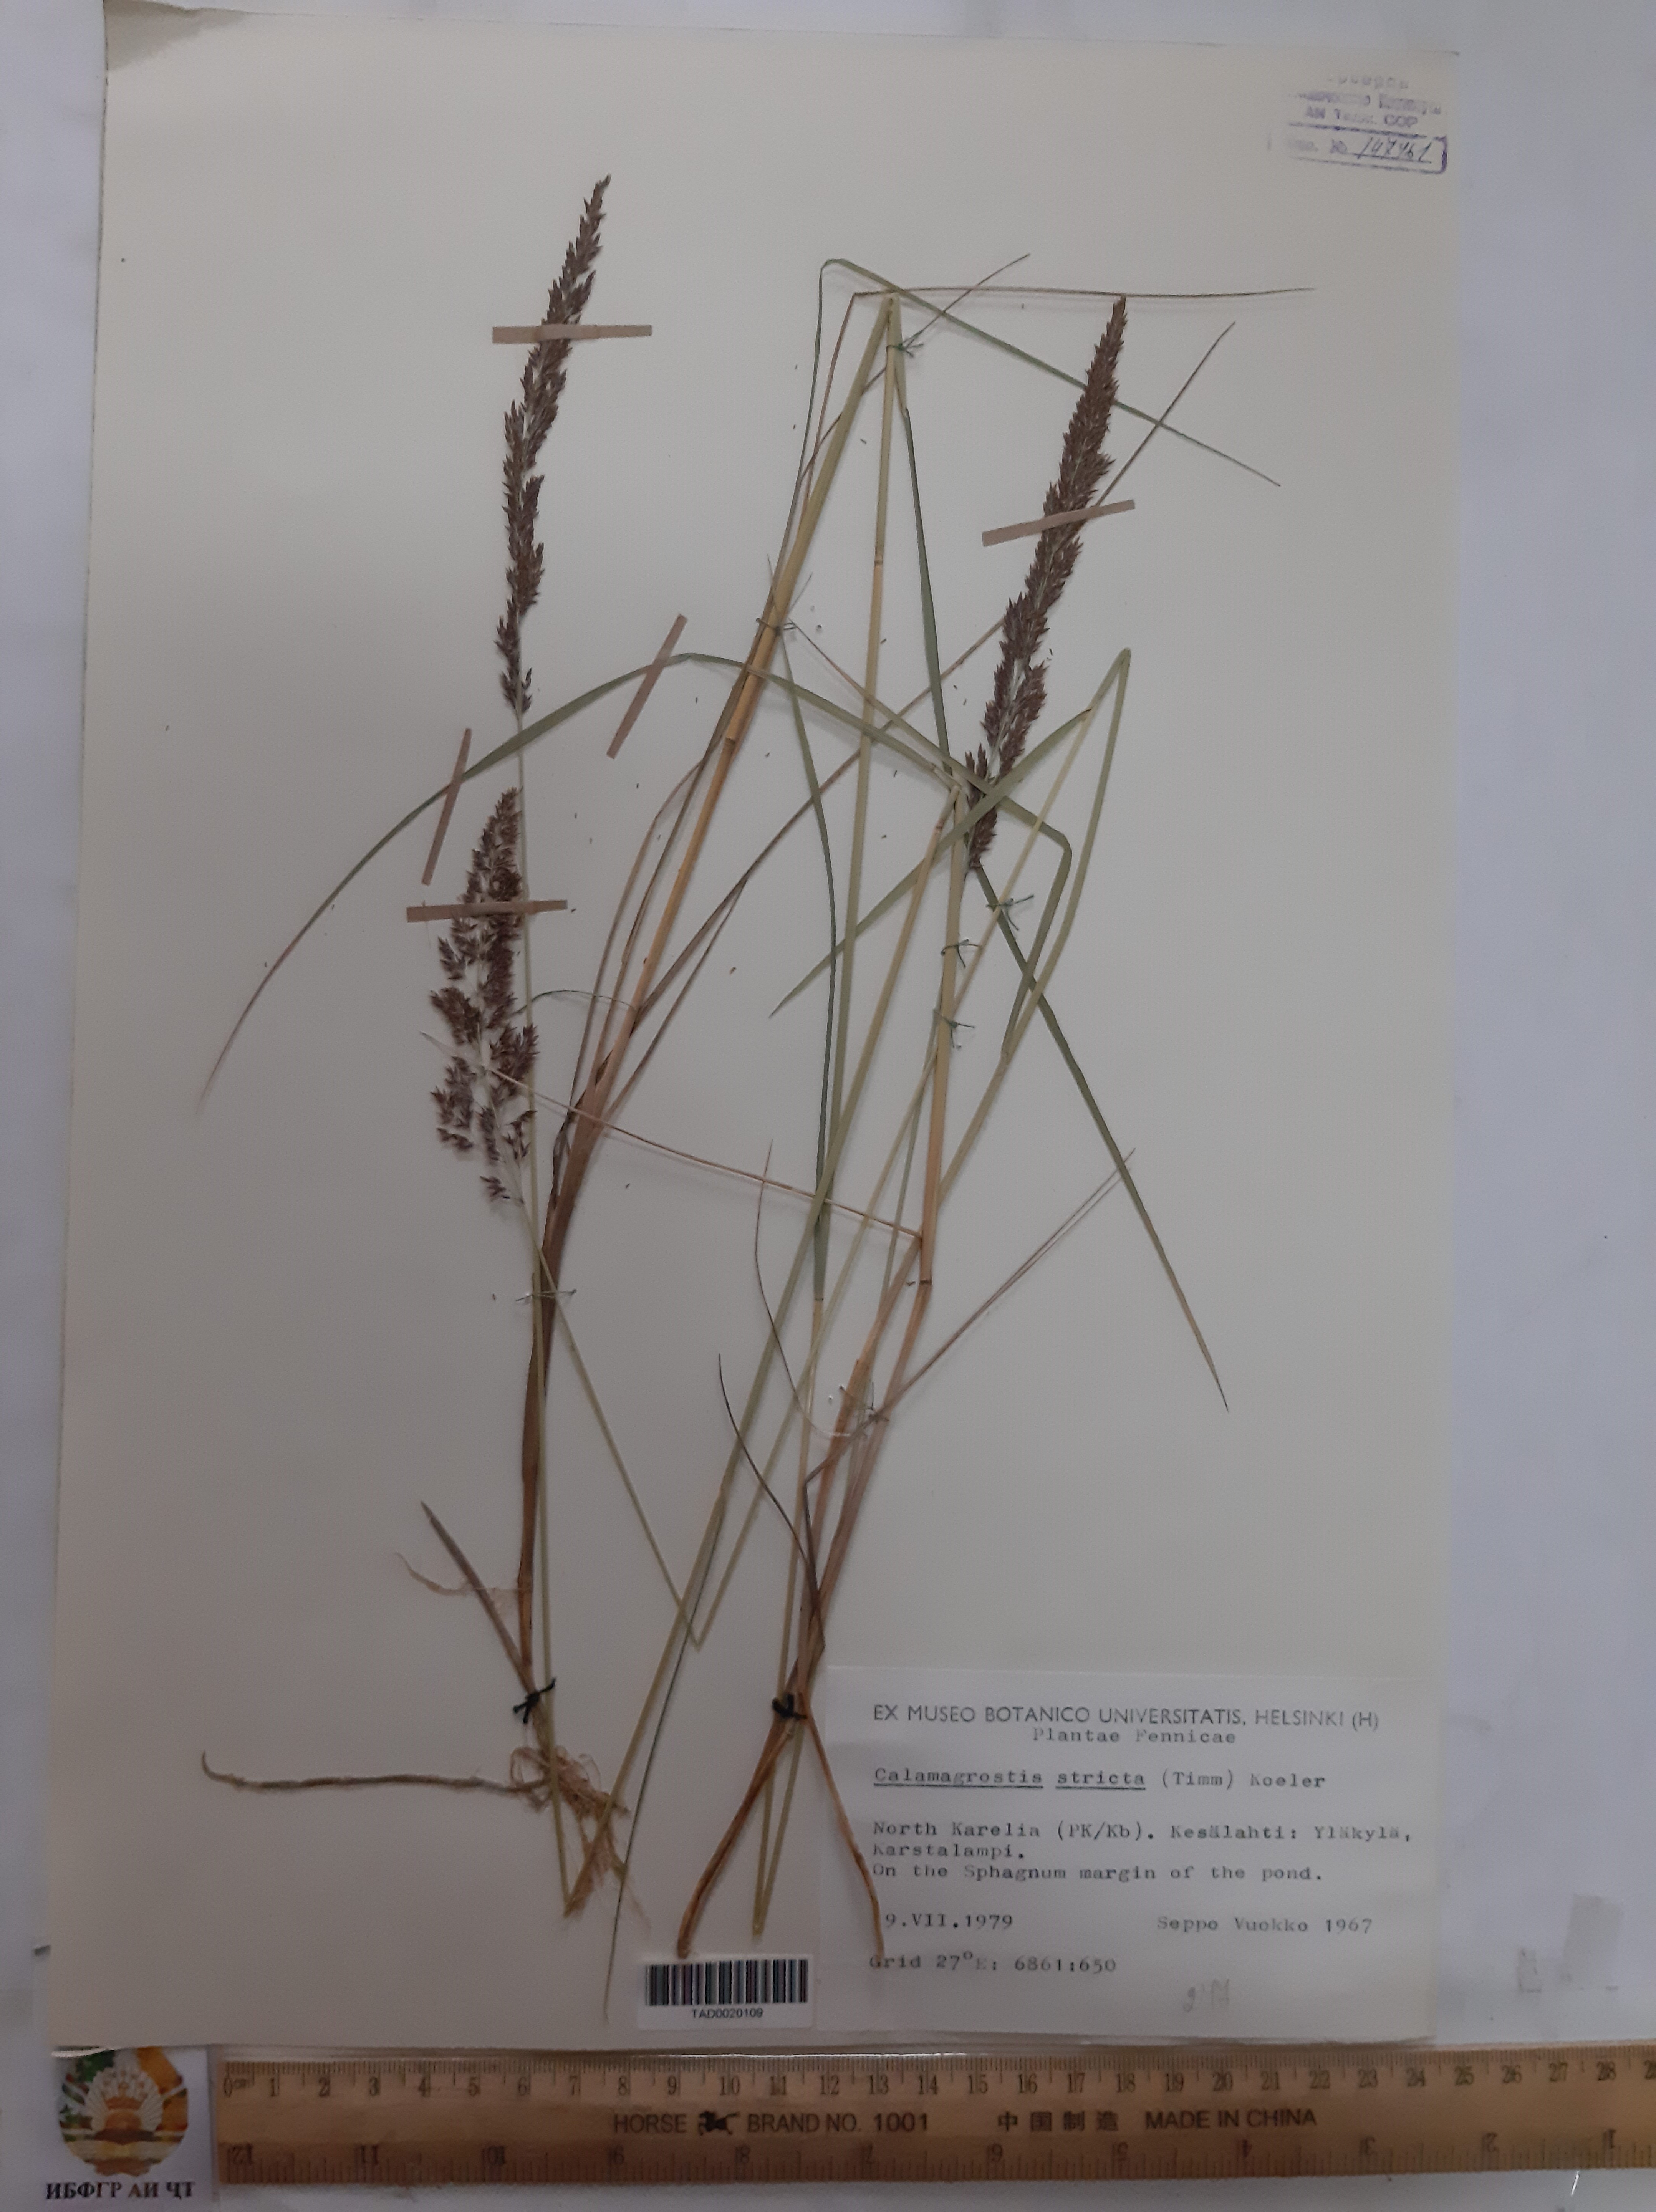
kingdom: Plantae
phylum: Tracheophyta
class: Liliopsida
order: Poales
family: Poaceae
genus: Calamagrostis
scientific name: Calamagrostis stricta
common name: Narrow small-reed
